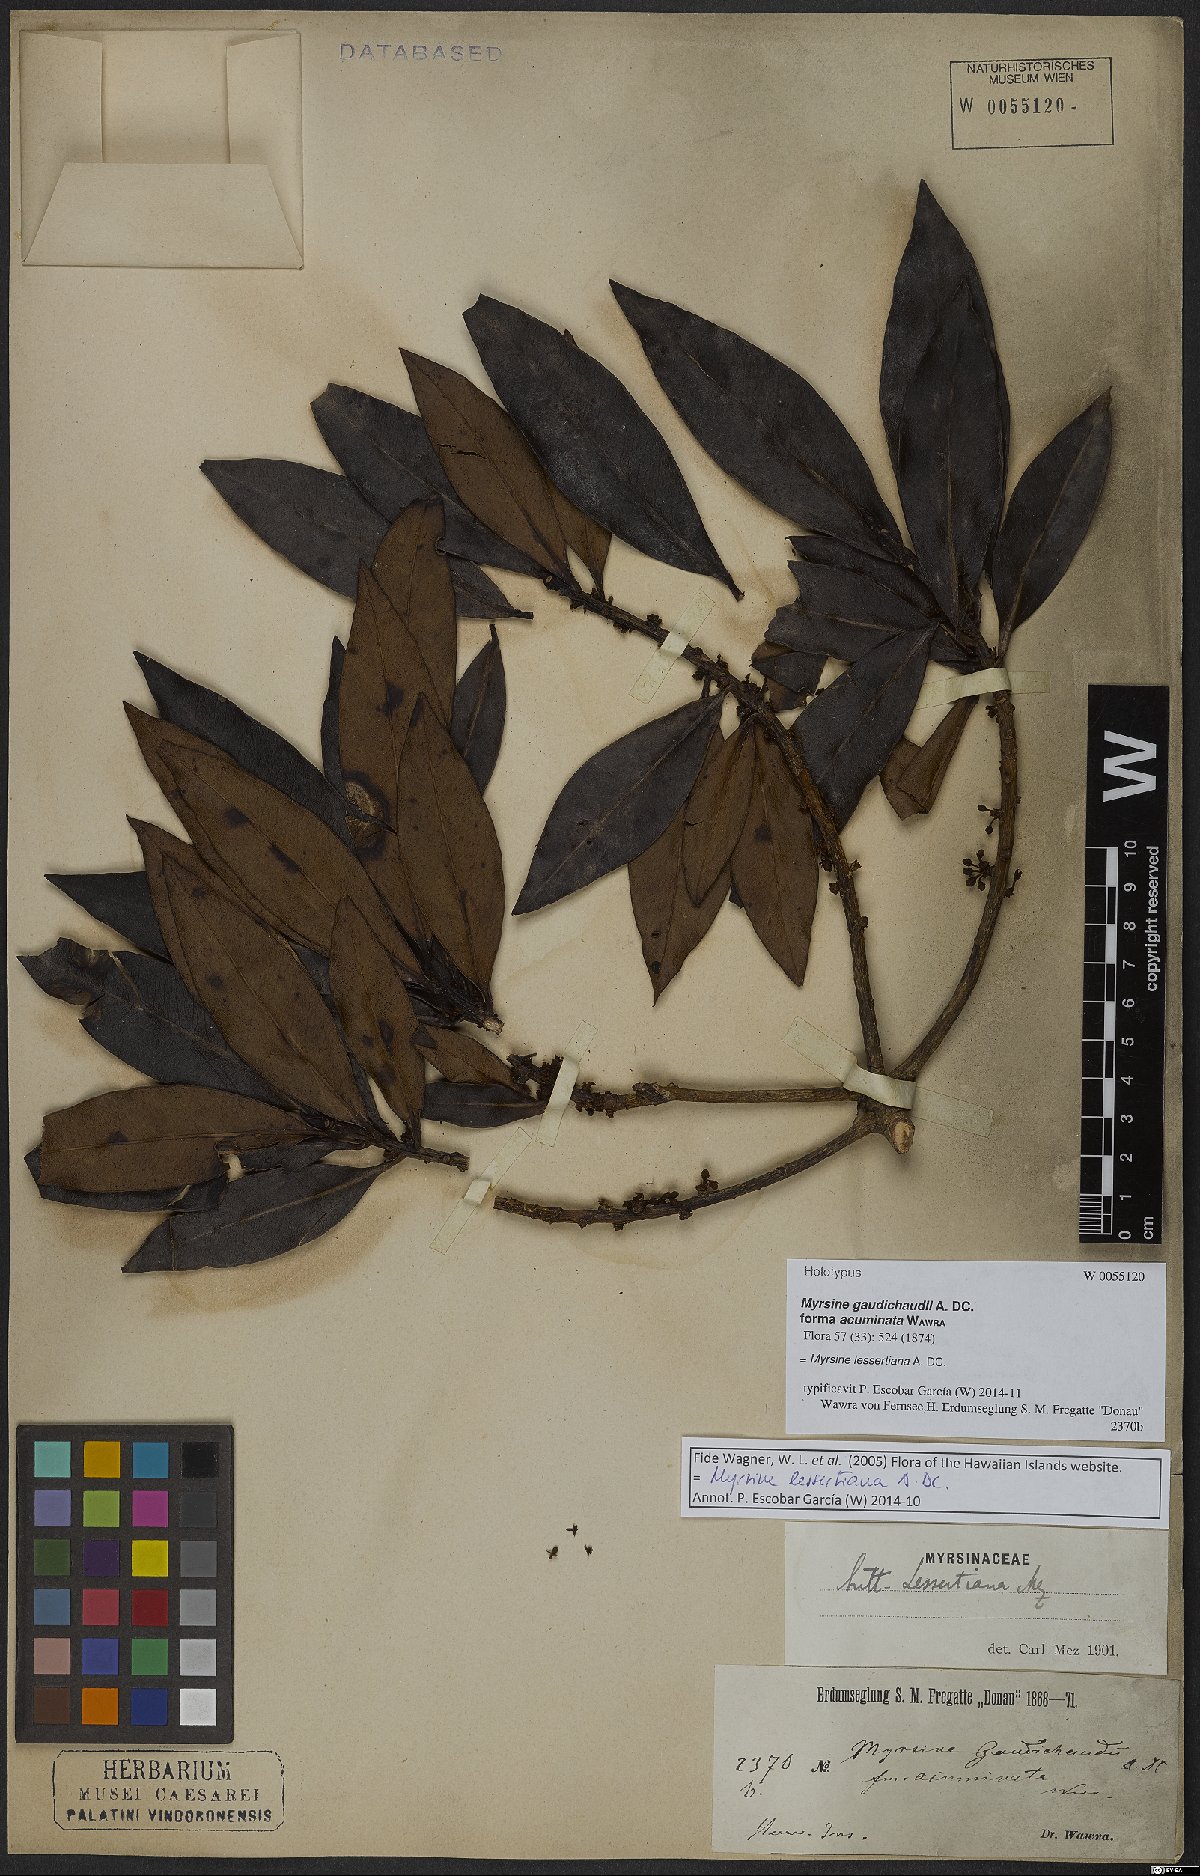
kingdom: Plantae
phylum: Tracheophyta
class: Magnoliopsida
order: Ericales
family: Primulaceae
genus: Myrsine
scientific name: Myrsine lessertiana
